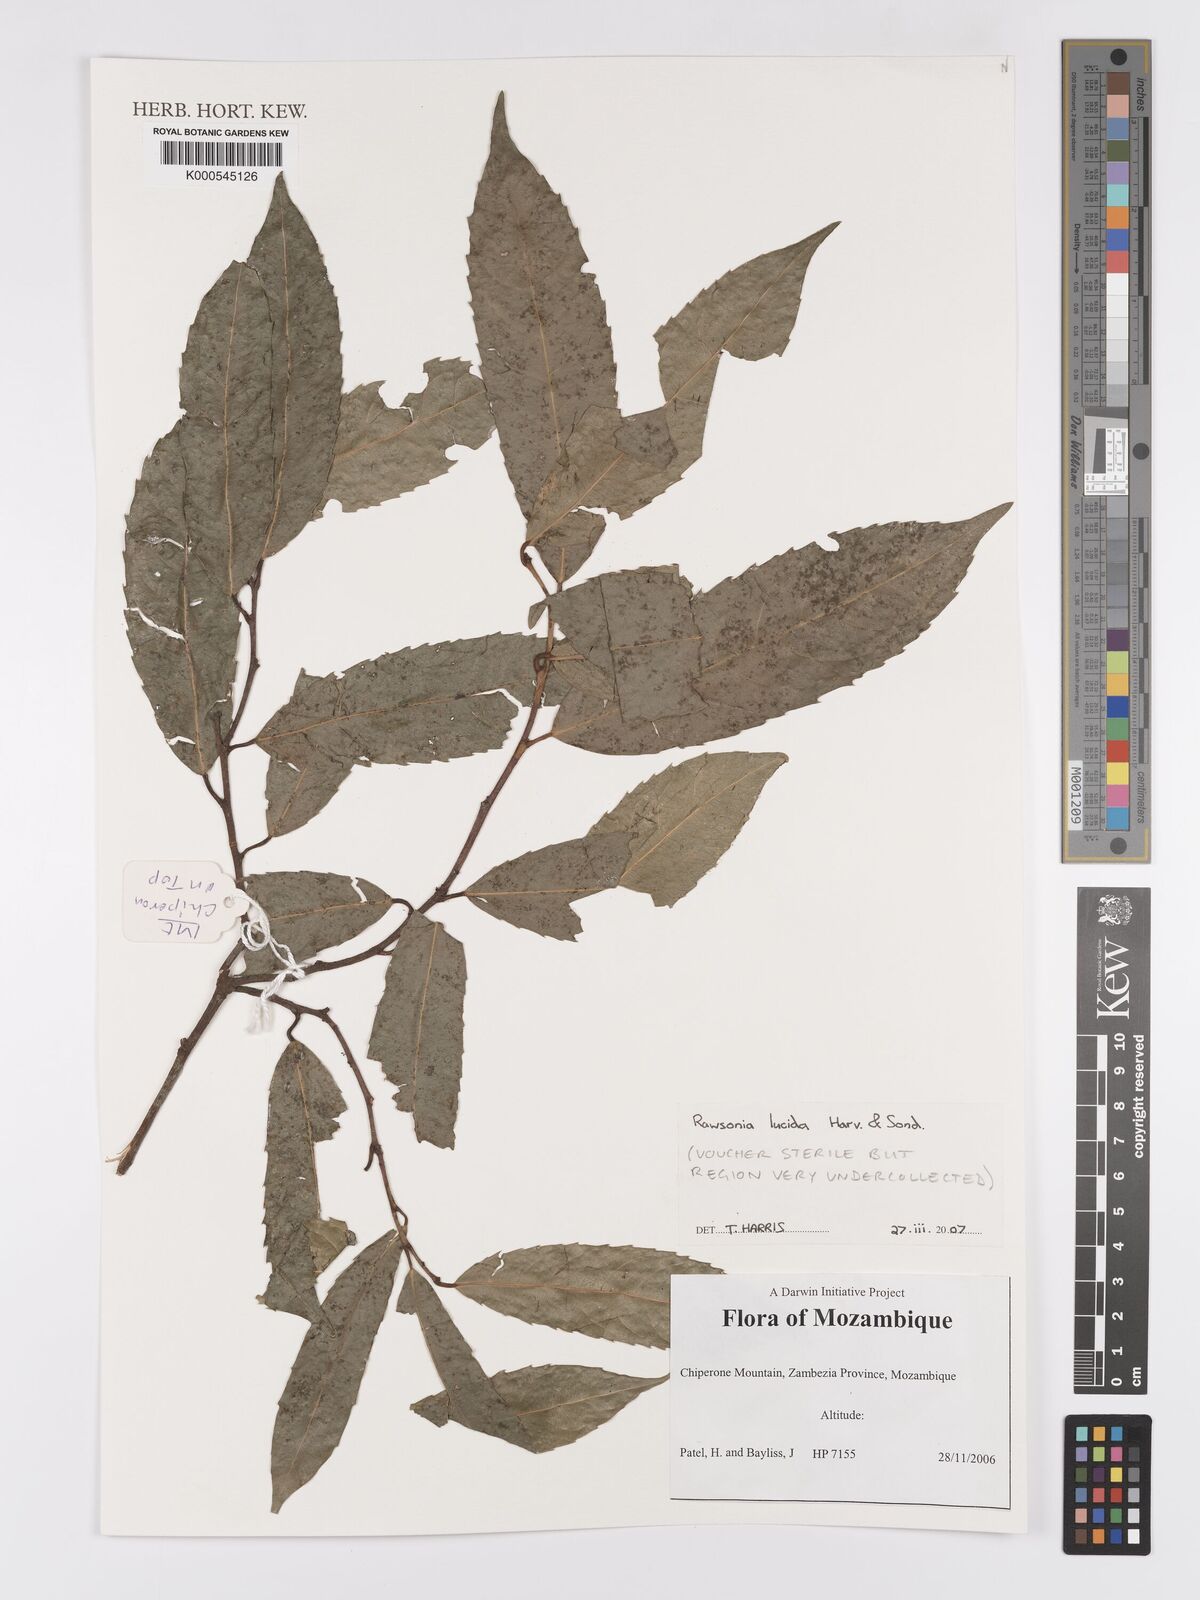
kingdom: Plantae
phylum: Tracheophyta
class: Magnoliopsida
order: Malpighiales
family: Achariaceae
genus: Rawsonia
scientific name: Rawsonia lucida
